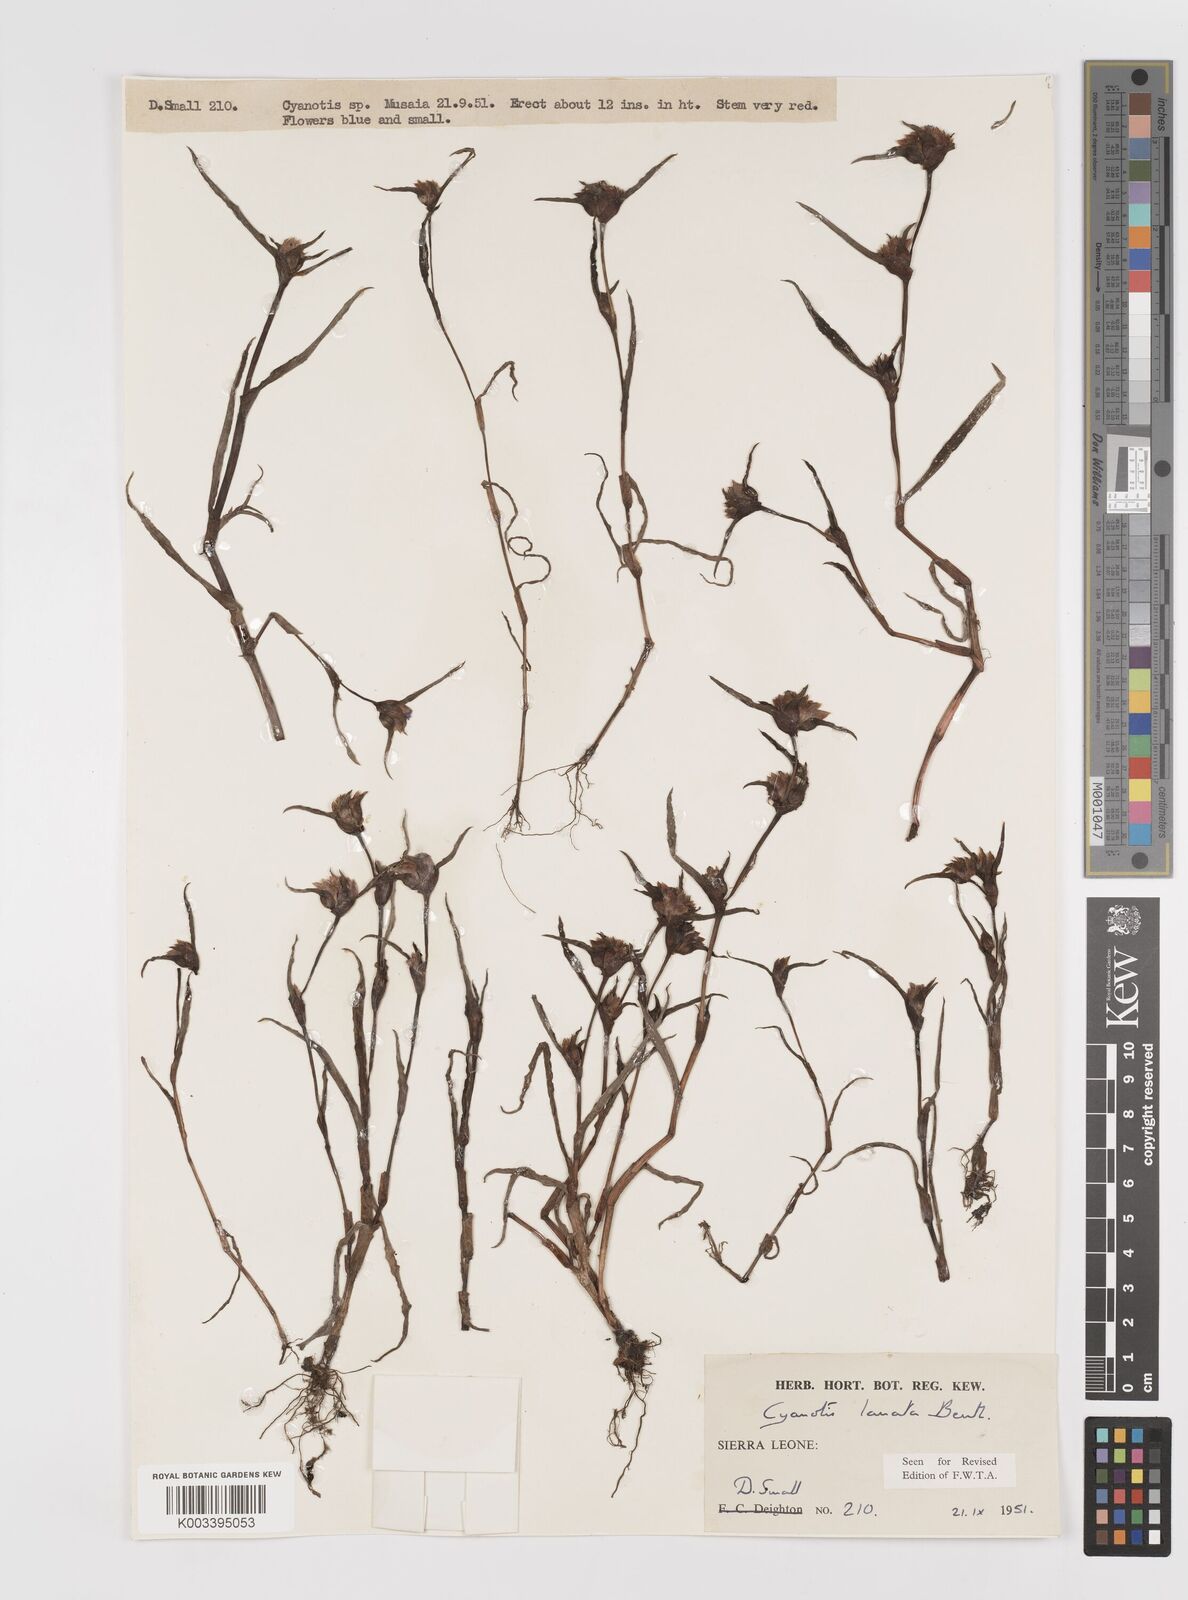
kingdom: Plantae
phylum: Tracheophyta
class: Liliopsida
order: Commelinales
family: Commelinaceae
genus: Cyanotis
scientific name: Cyanotis lanata
